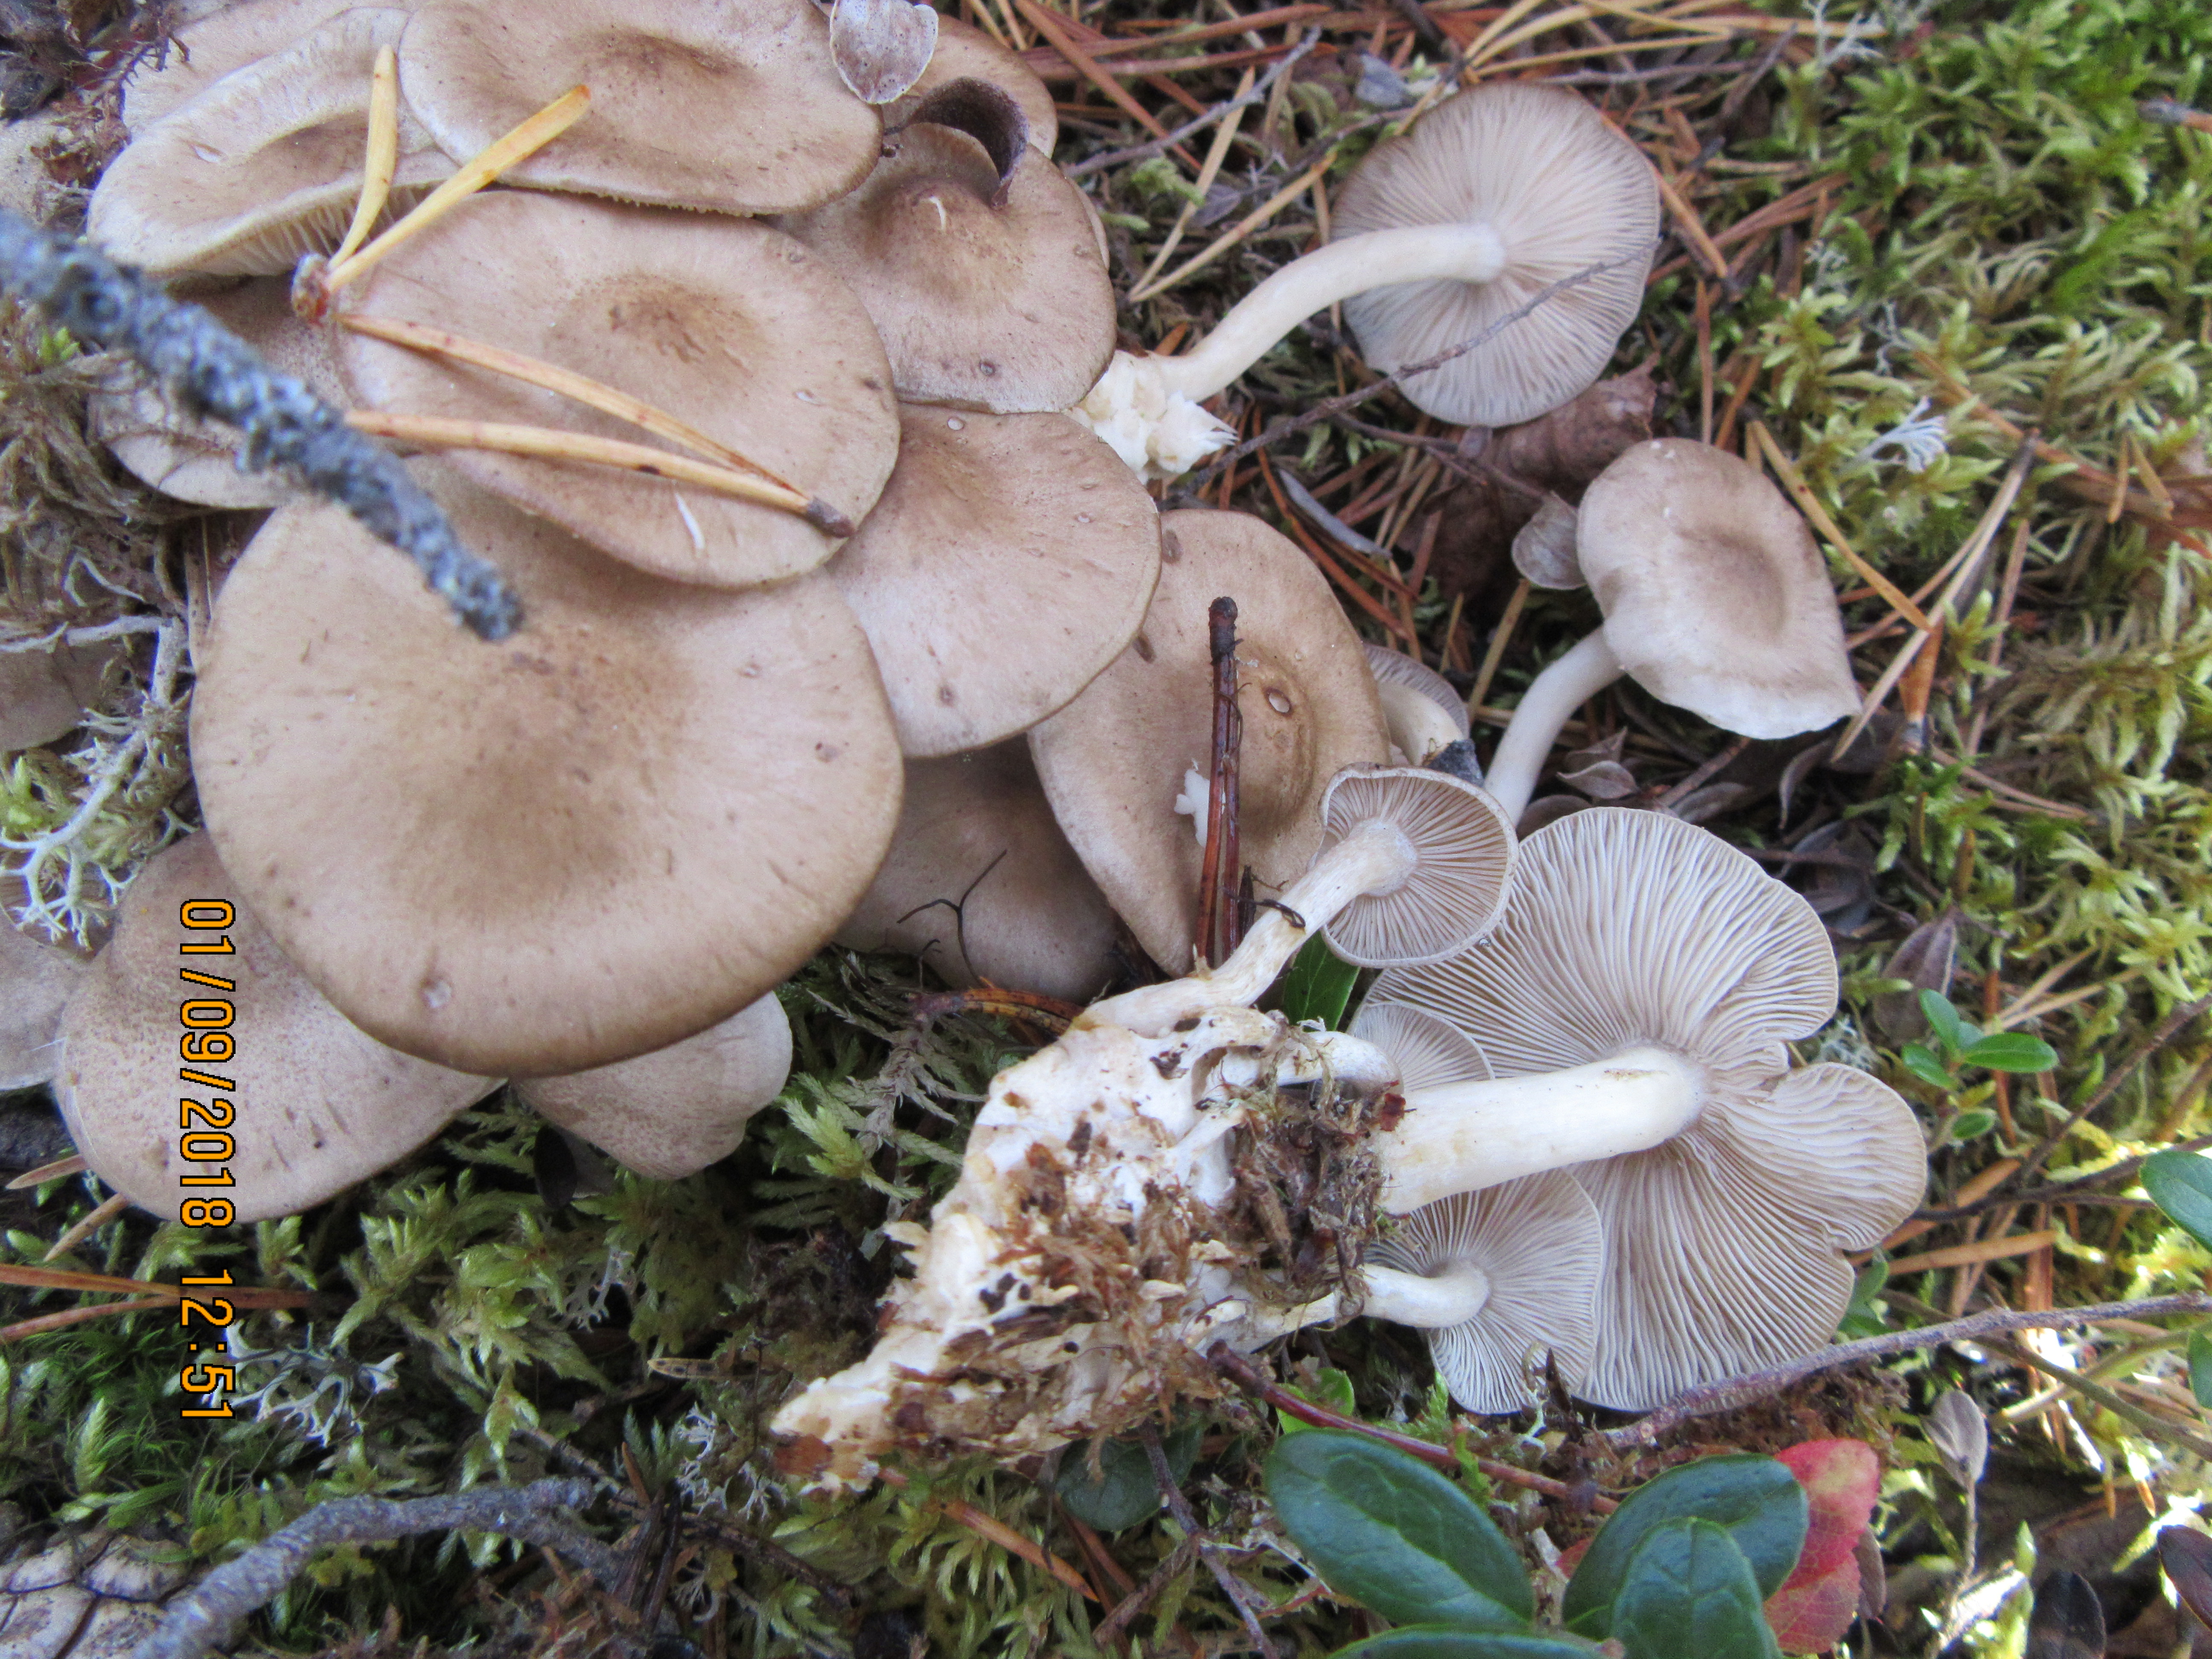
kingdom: Fungi
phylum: Basidiomycota
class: Agaricomycetes
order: Agaricales
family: Lyophyllaceae
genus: Lyophyllum
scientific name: Lyophyllum decastes
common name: Clustered domecap
